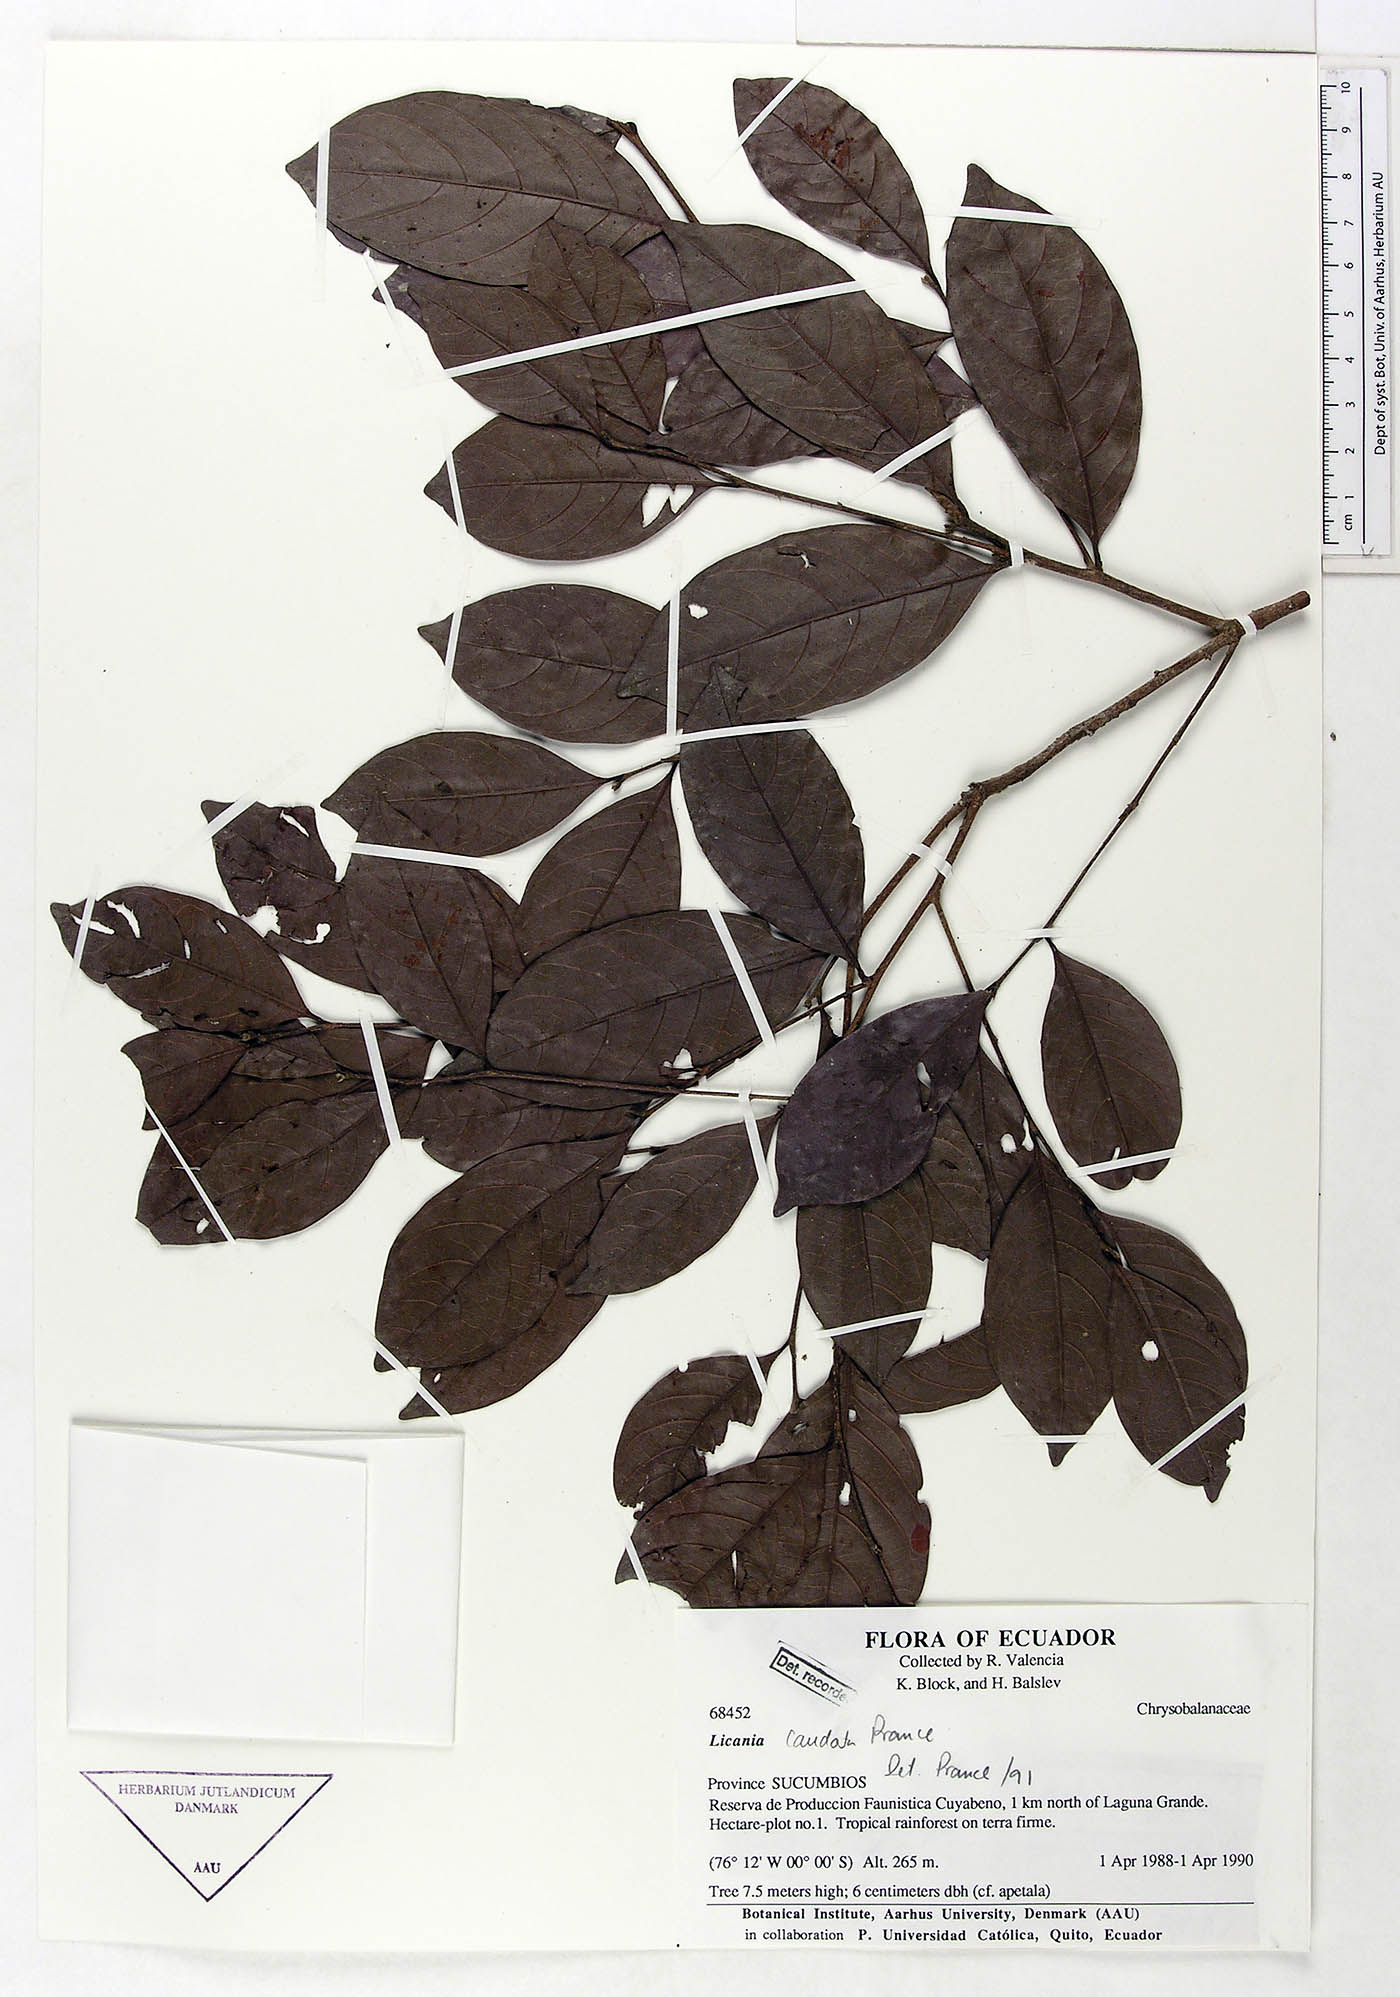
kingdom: Plantae
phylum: Tracheophyta
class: Magnoliopsida
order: Malpighiales
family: Chrysobalanaceae
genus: Hymenopus
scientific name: Hymenopus caudatus
